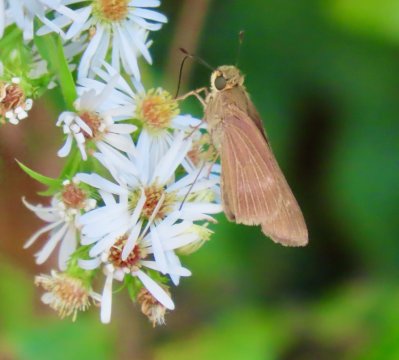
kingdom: Animalia
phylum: Arthropoda
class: Insecta
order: Lepidoptera
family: Hesperiidae
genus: Panoquina
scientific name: Panoquina ocola
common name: Ocola Skipper
